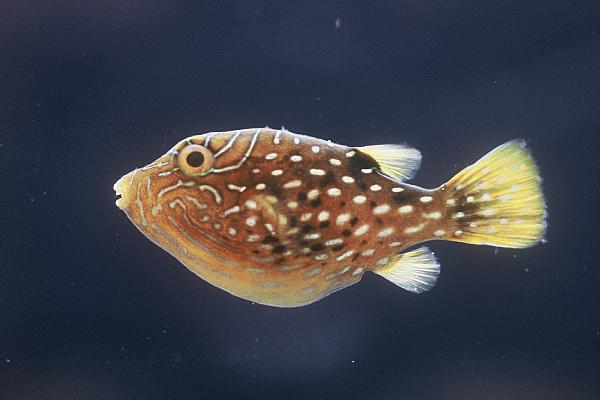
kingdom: Animalia
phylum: Chordata
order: Tetraodontiformes
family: Tetraodontidae
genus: Canthigaster
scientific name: Canthigaster amboinensis
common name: Ambon pufferfish
